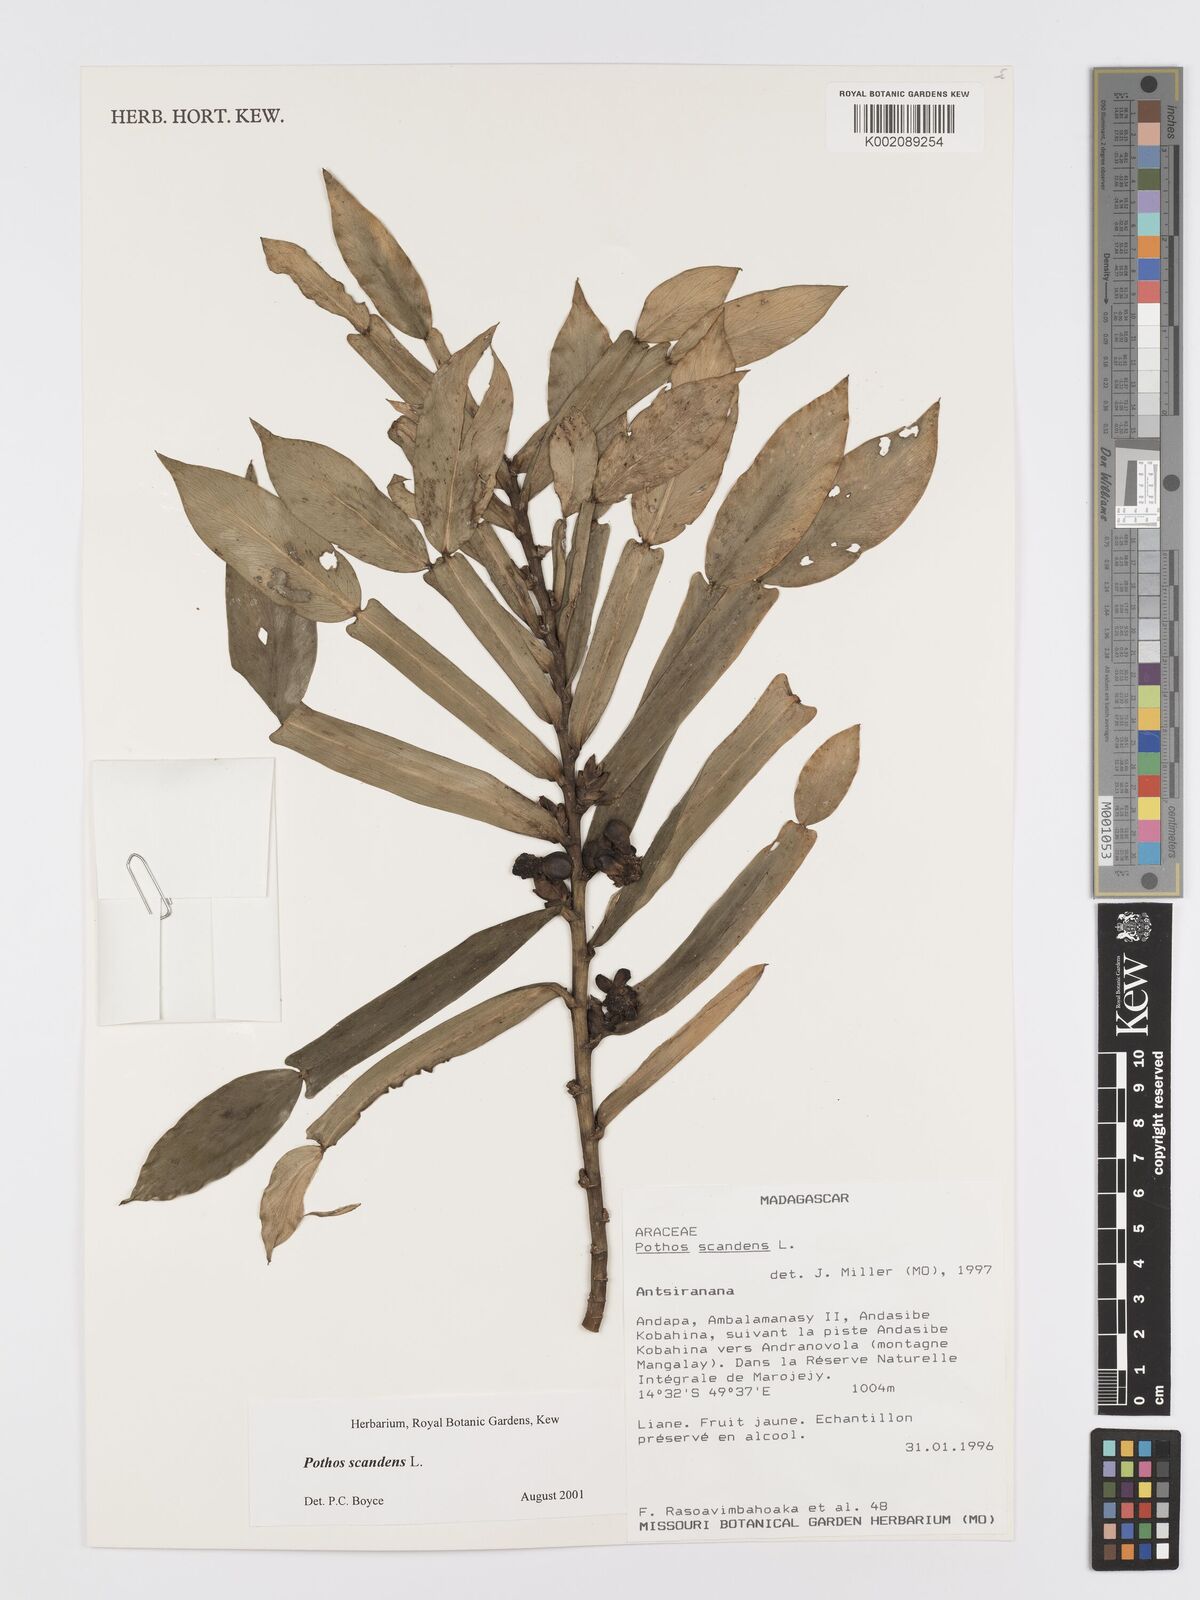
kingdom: Plantae
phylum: Tracheophyta
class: Liliopsida
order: Alismatales
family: Araceae
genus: Pothos
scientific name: Pothos scandens
